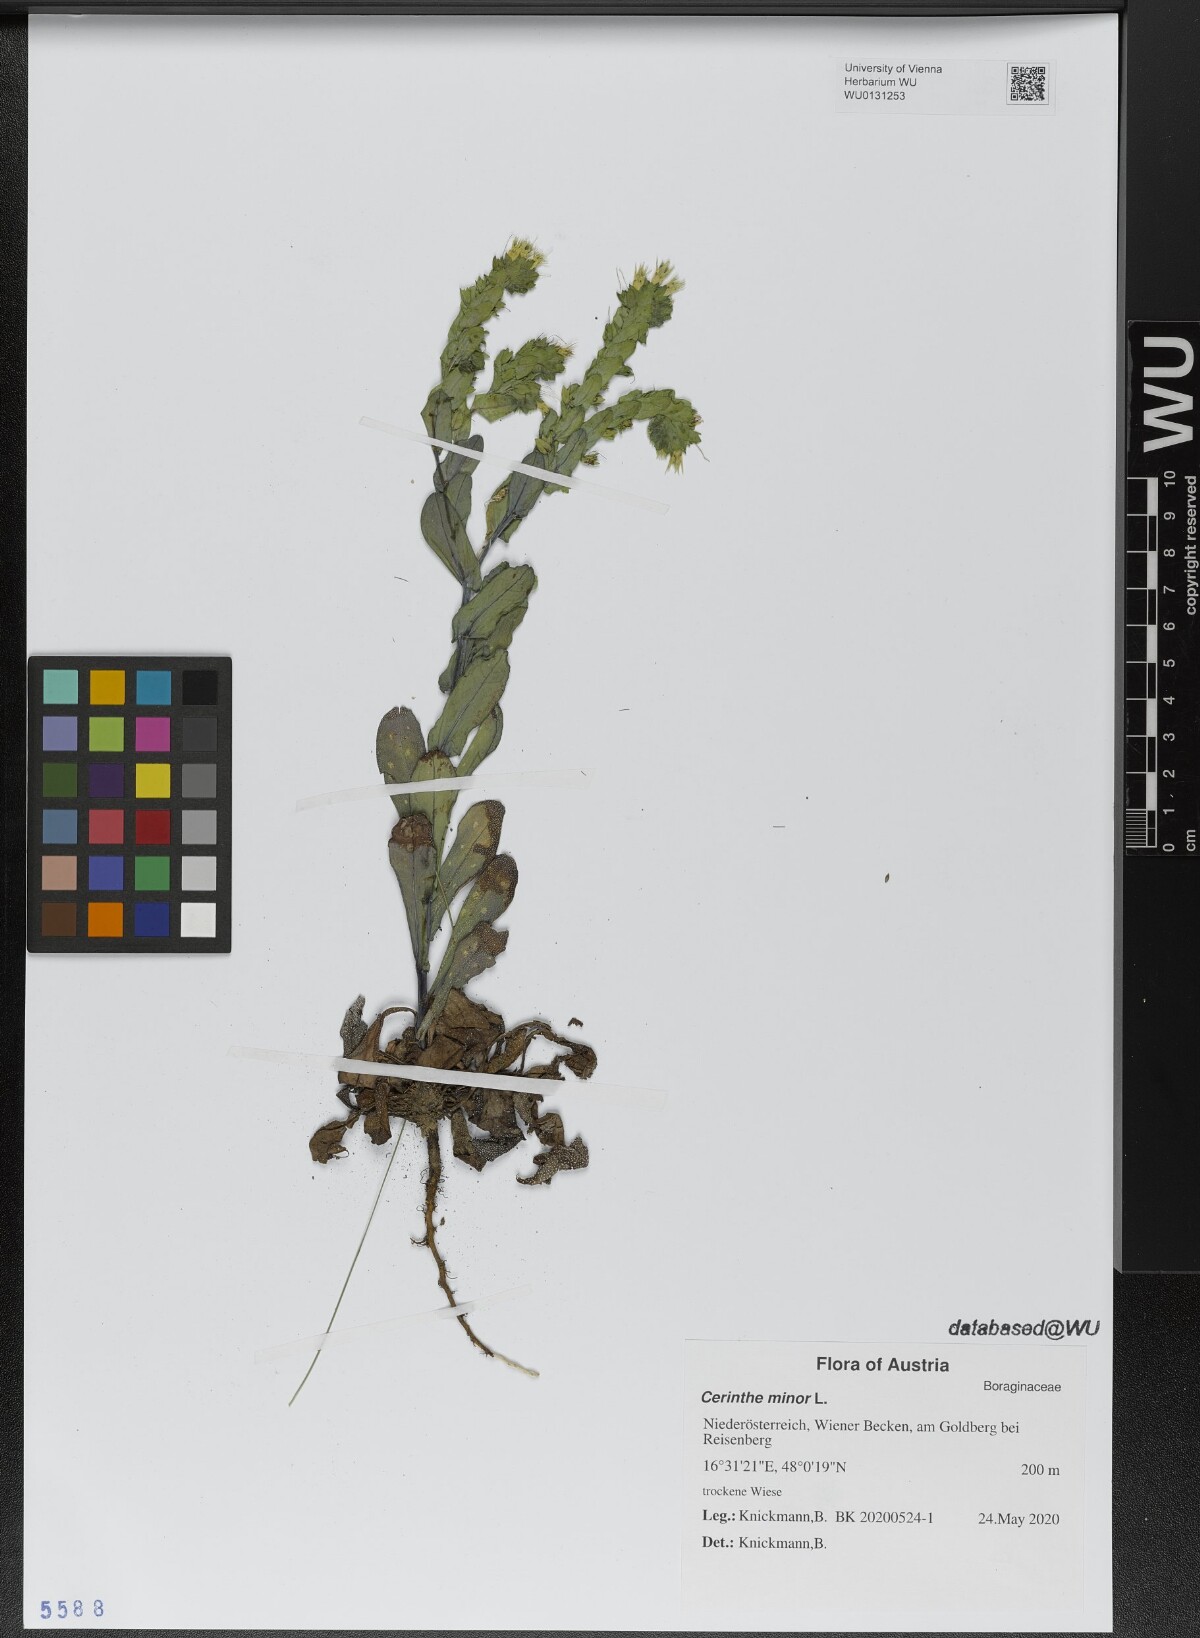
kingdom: Plantae
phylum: Tracheophyta
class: Magnoliopsida
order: Boraginales
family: Boraginaceae
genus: Cerinthe
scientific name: Cerinthe minor
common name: Lesser honeywort
